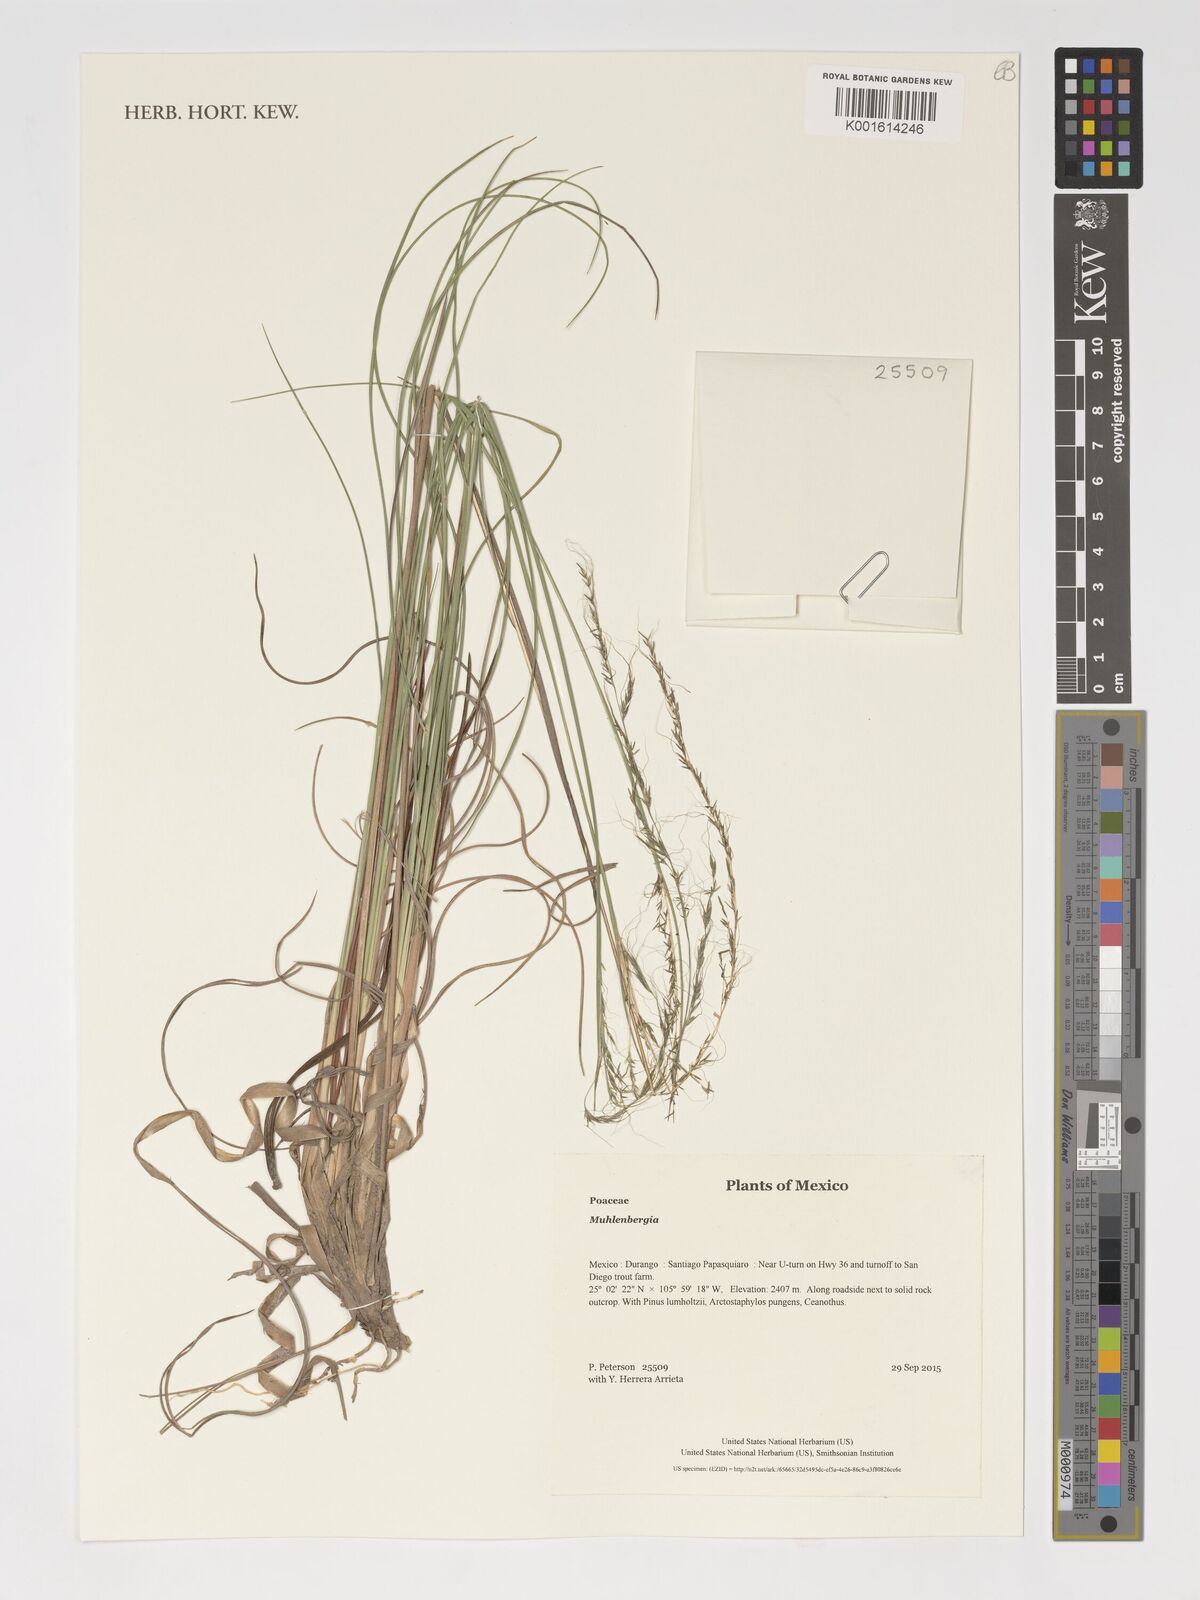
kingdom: Plantae
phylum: Tracheophyta
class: Liliopsida
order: Poales
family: Poaceae
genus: Muhlenbergia
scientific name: Muhlenbergia
